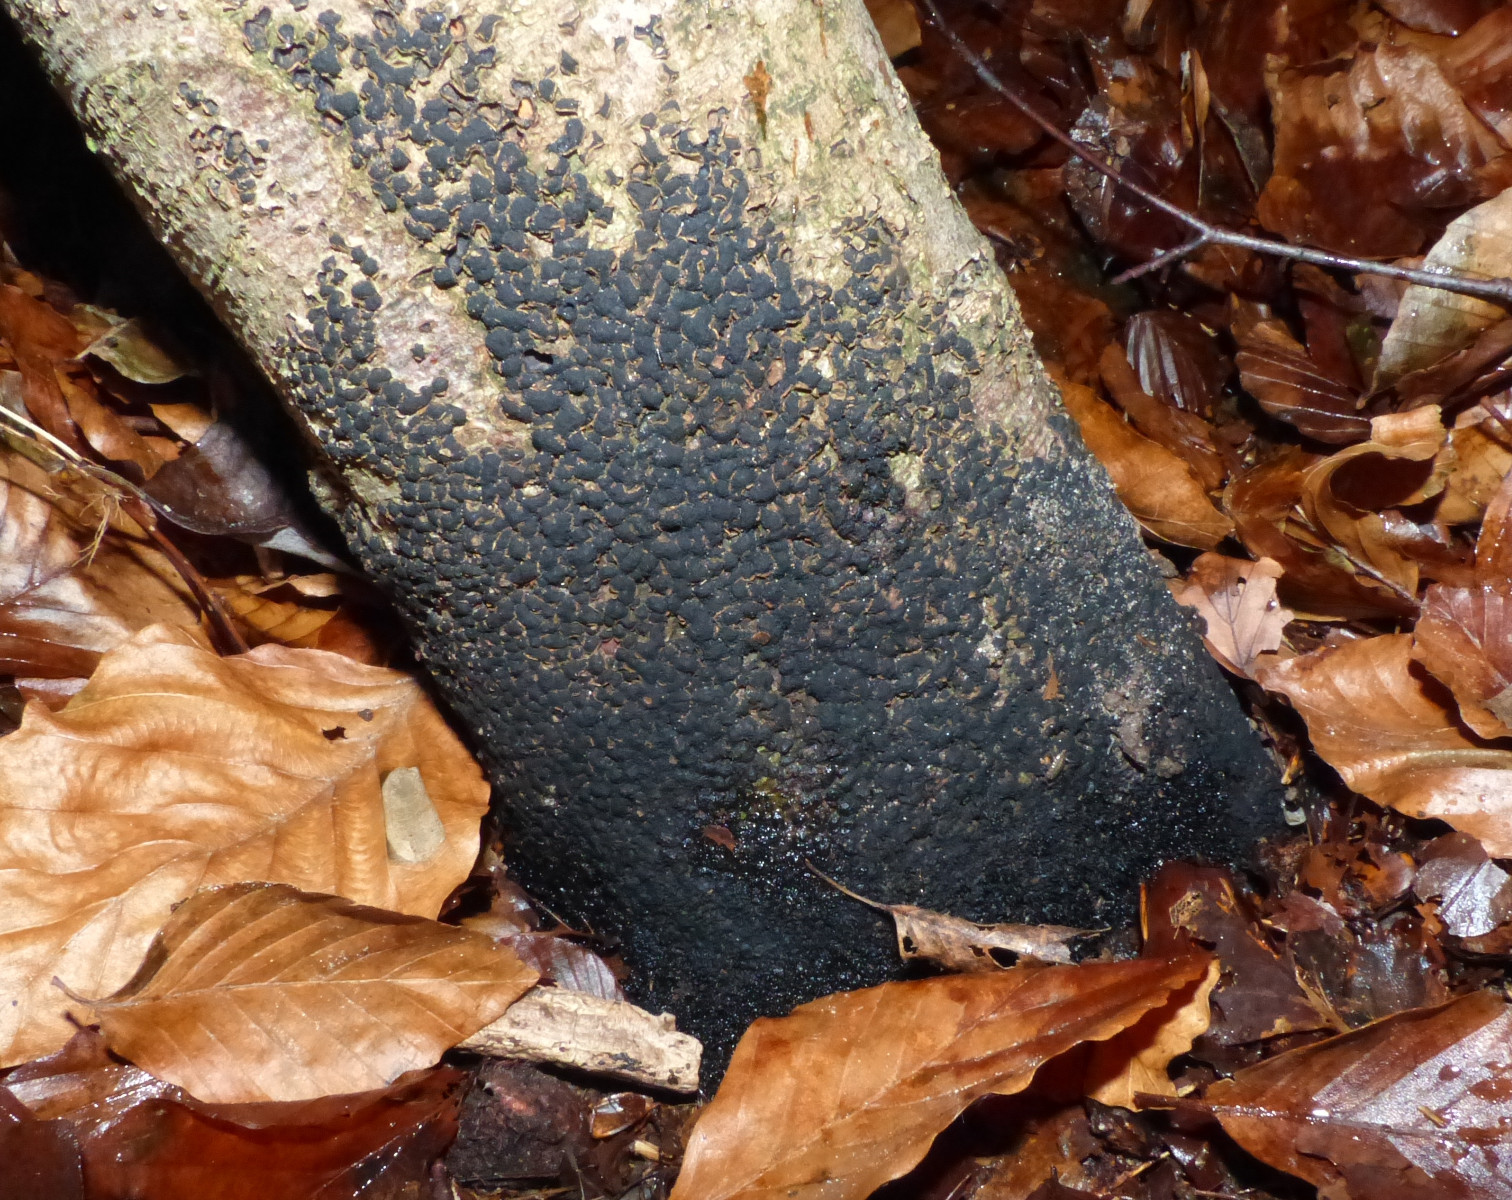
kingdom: Fungi
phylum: Ascomycota
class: Sordariomycetes
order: Xylariales
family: Melogrammataceae
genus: Melogramma
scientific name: Melogramma spiniferum
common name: bøgefod-kulhals
